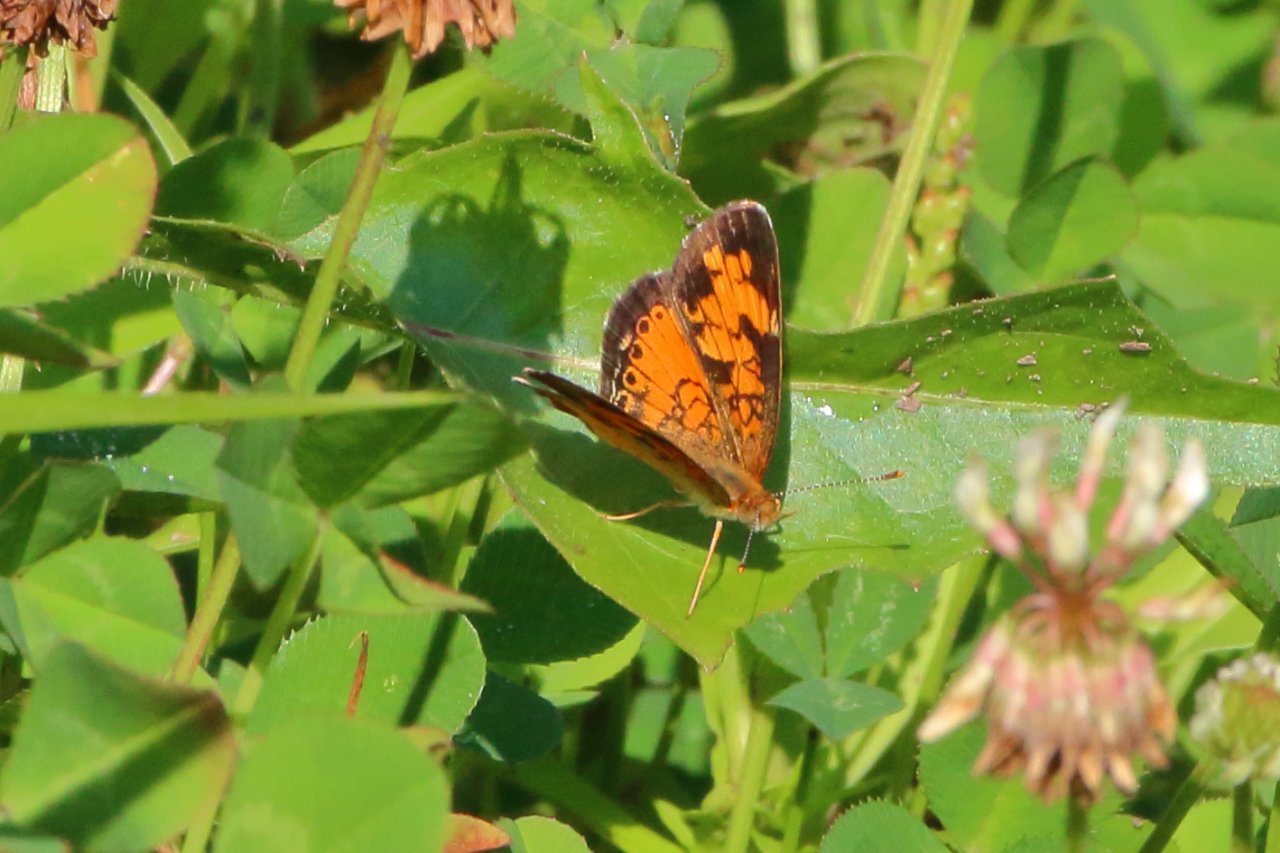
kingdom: Animalia
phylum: Arthropoda
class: Insecta
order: Lepidoptera
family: Nymphalidae
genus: Phyciodes
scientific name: Phyciodes tharos
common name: Northern Crescent
